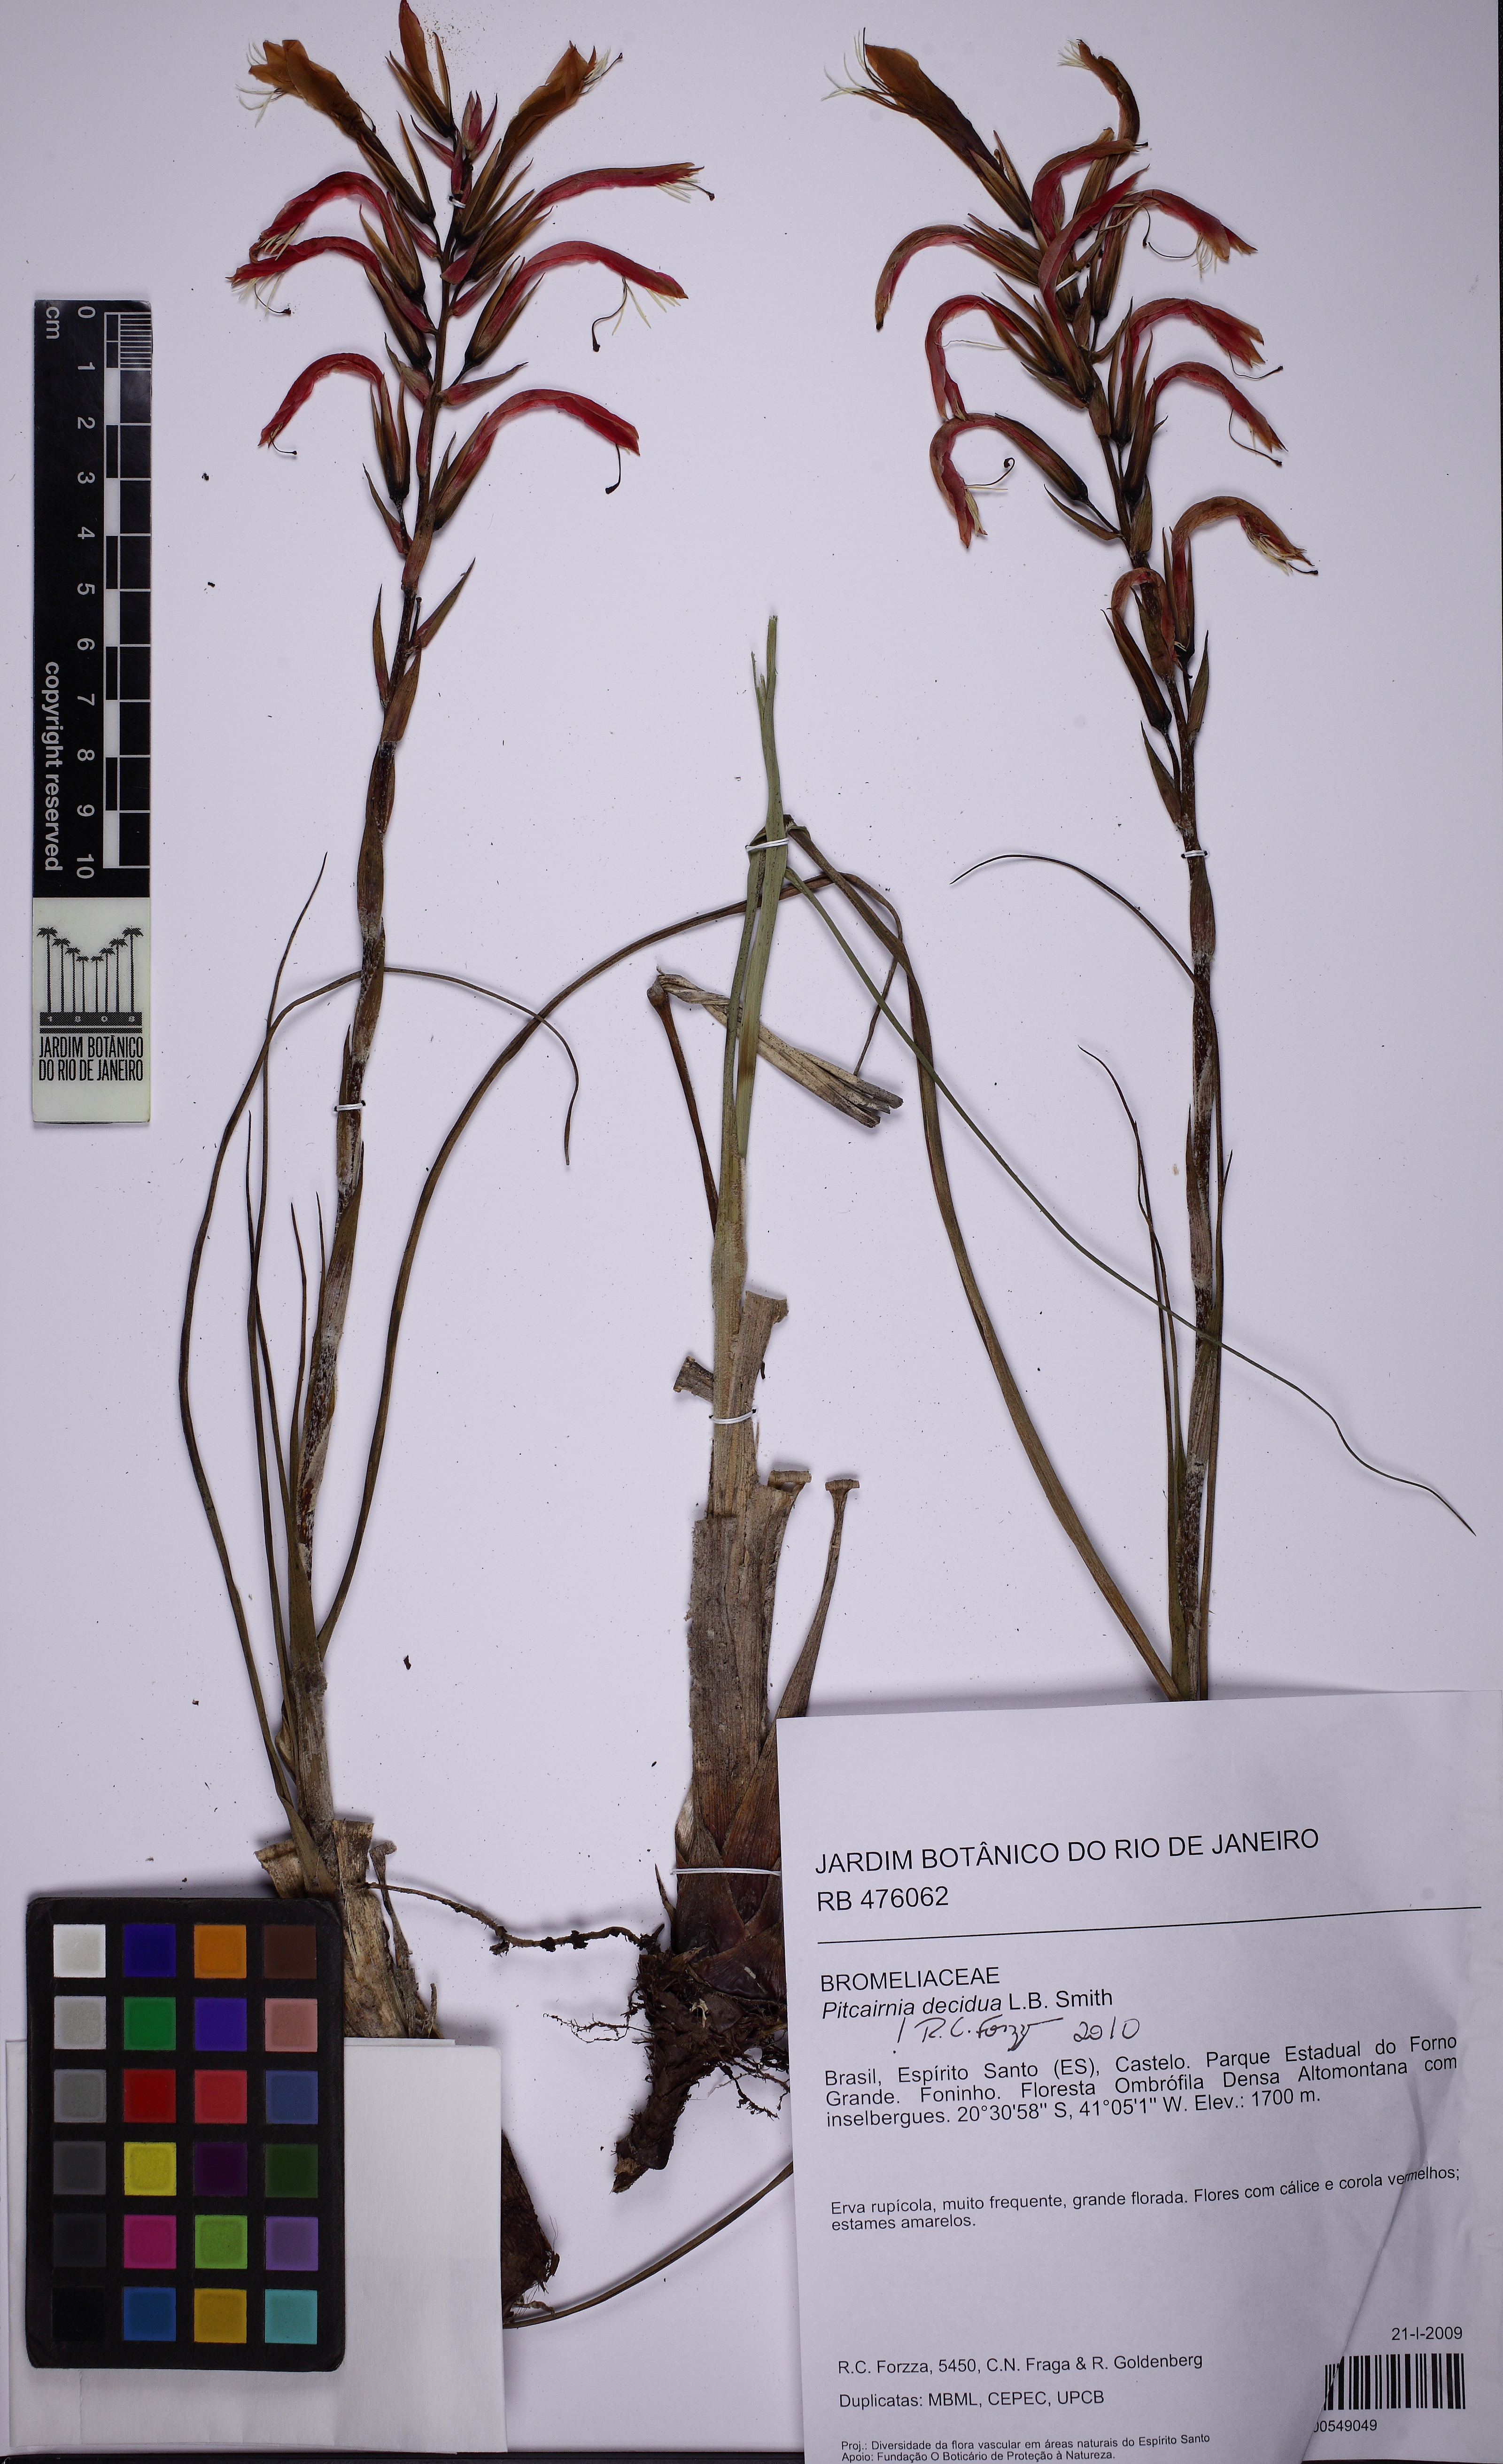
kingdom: Plantae
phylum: Tracheophyta
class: Liliopsida
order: Poales
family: Bromeliaceae
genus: Pitcairnia
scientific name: Pitcairnia decidua
